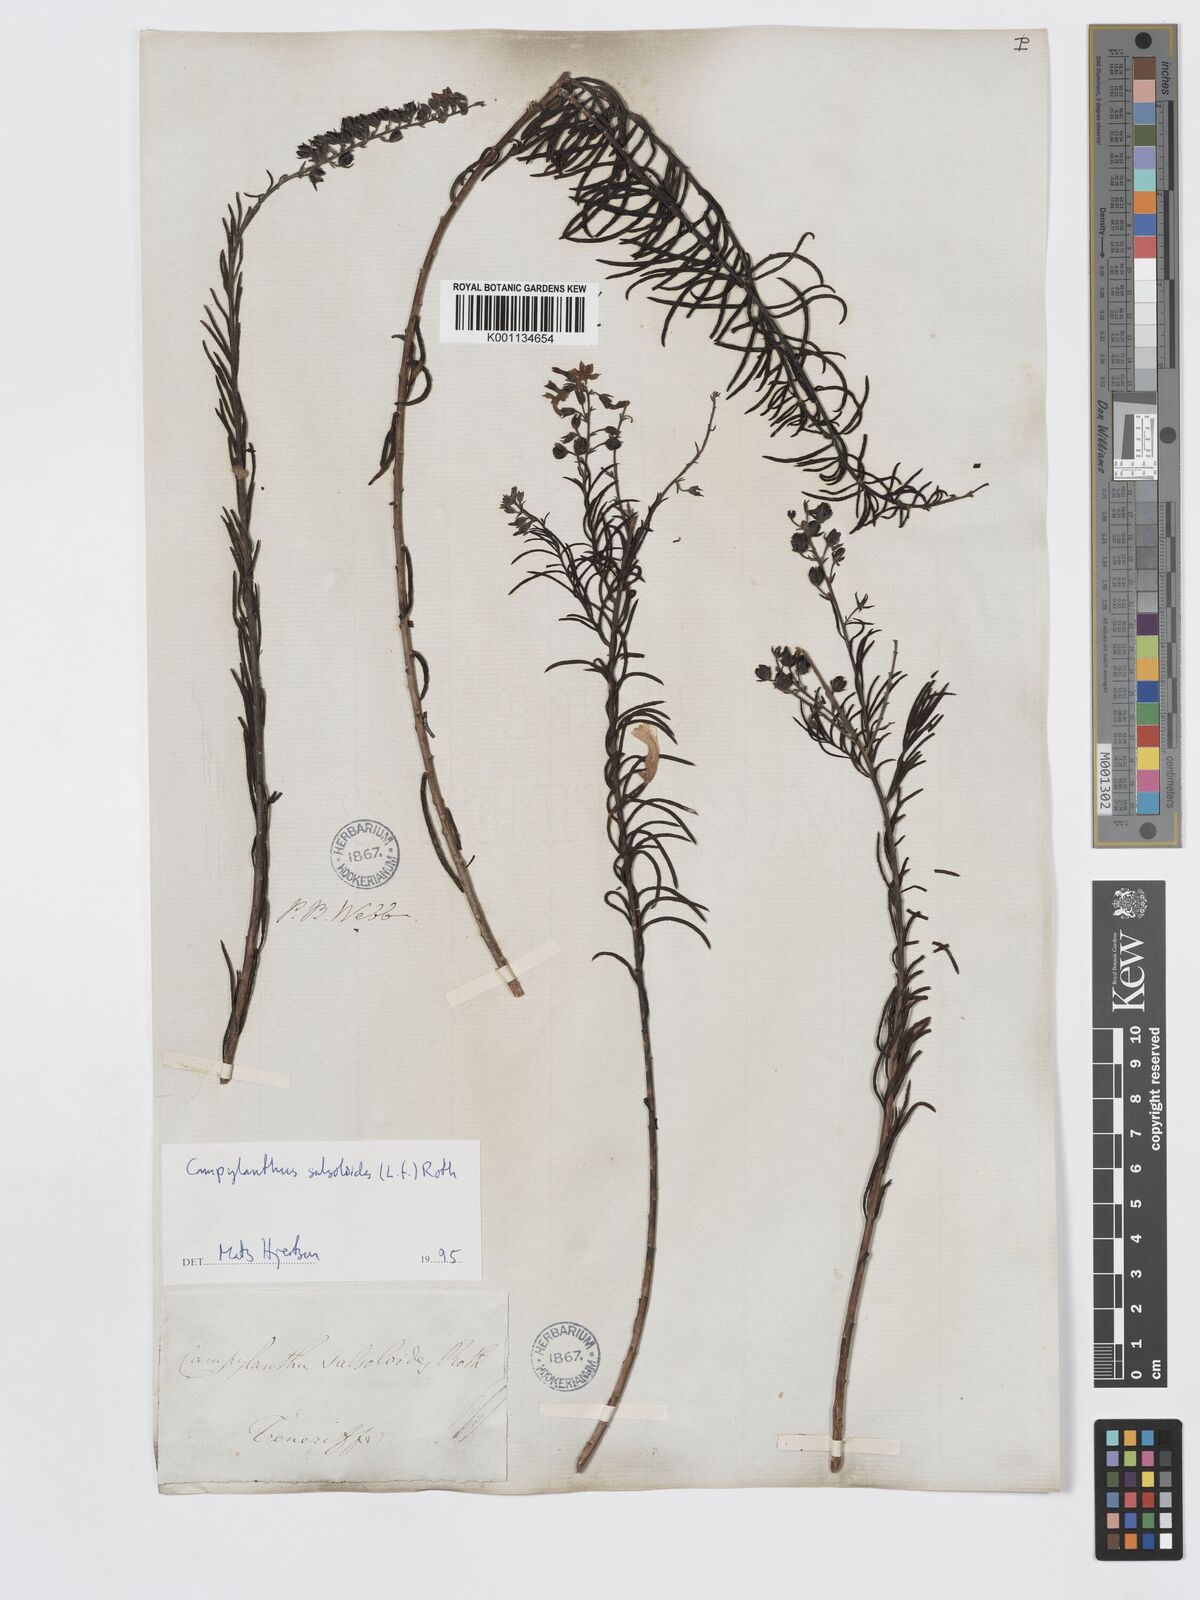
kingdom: Plantae
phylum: Tracheophyta
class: Magnoliopsida
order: Lamiales
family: Plantaginaceae
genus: Campylanthus
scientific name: Campylanthus
